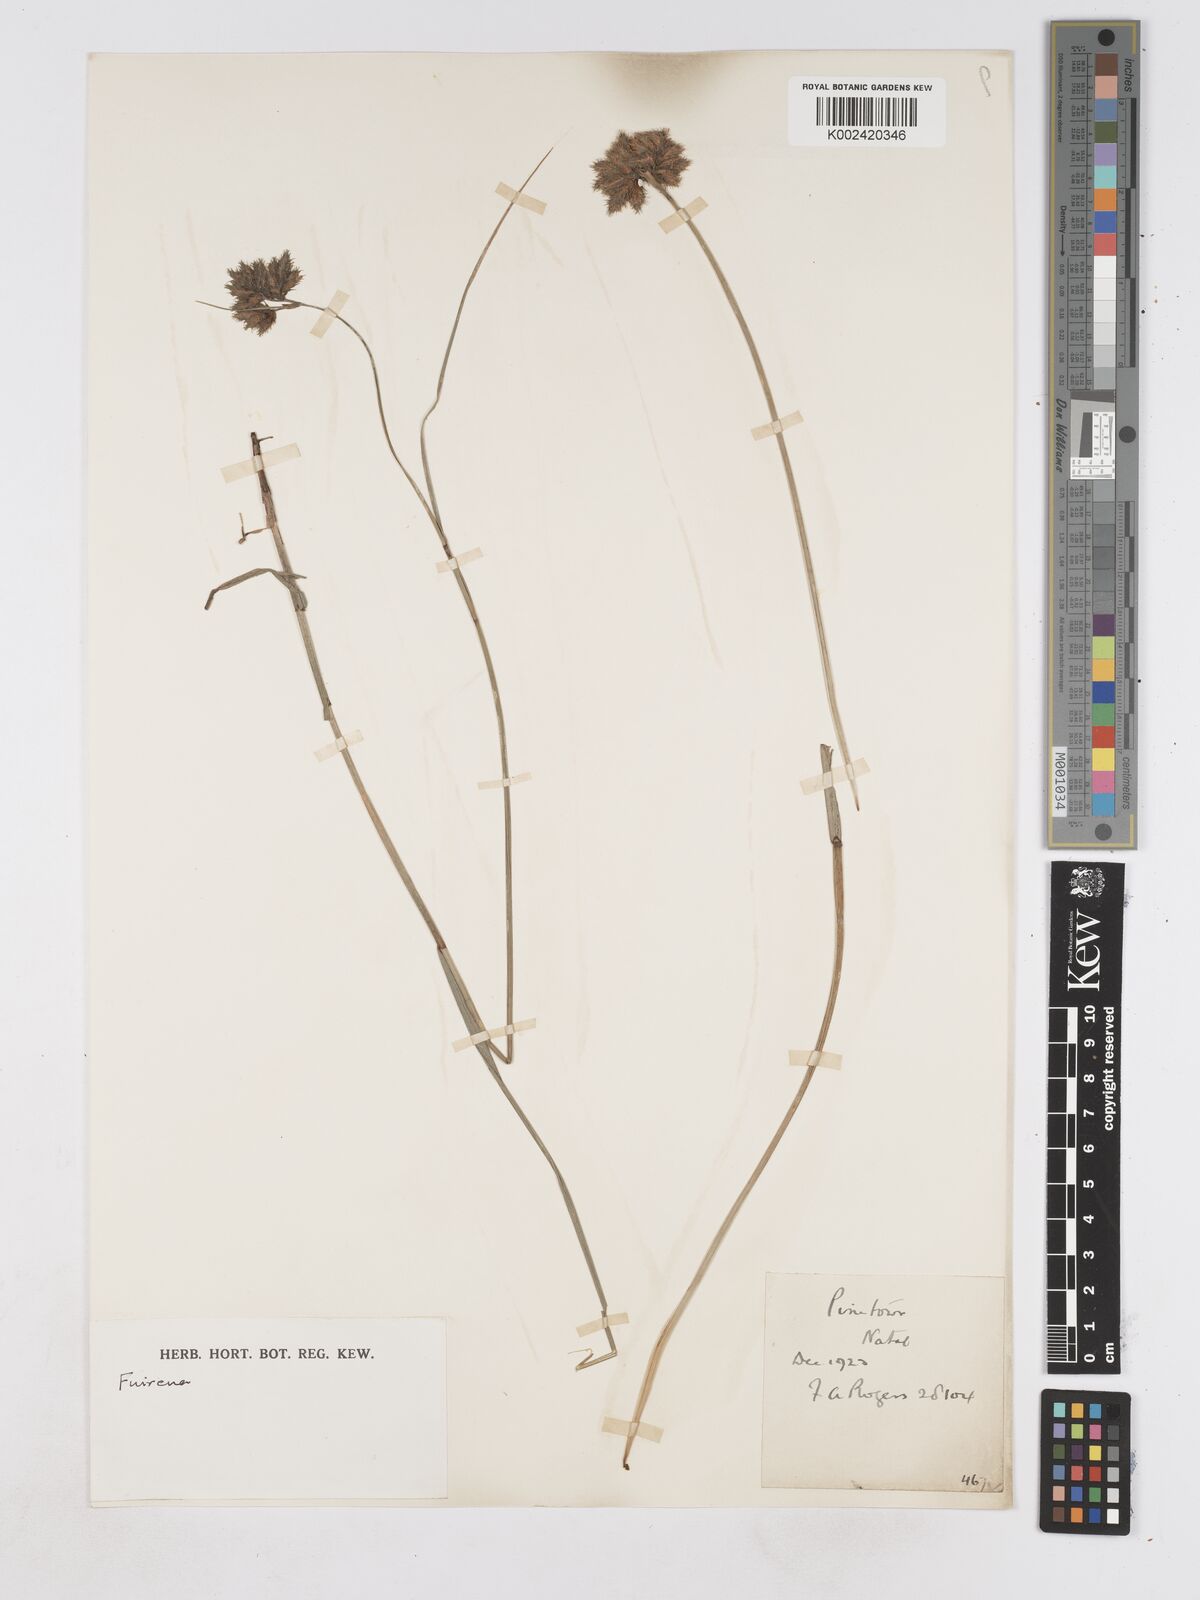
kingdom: Plantae
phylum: Tracheophyta
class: Liliopsida
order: Poales
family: Cyperaceae
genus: Fuirena
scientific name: Fuirena
